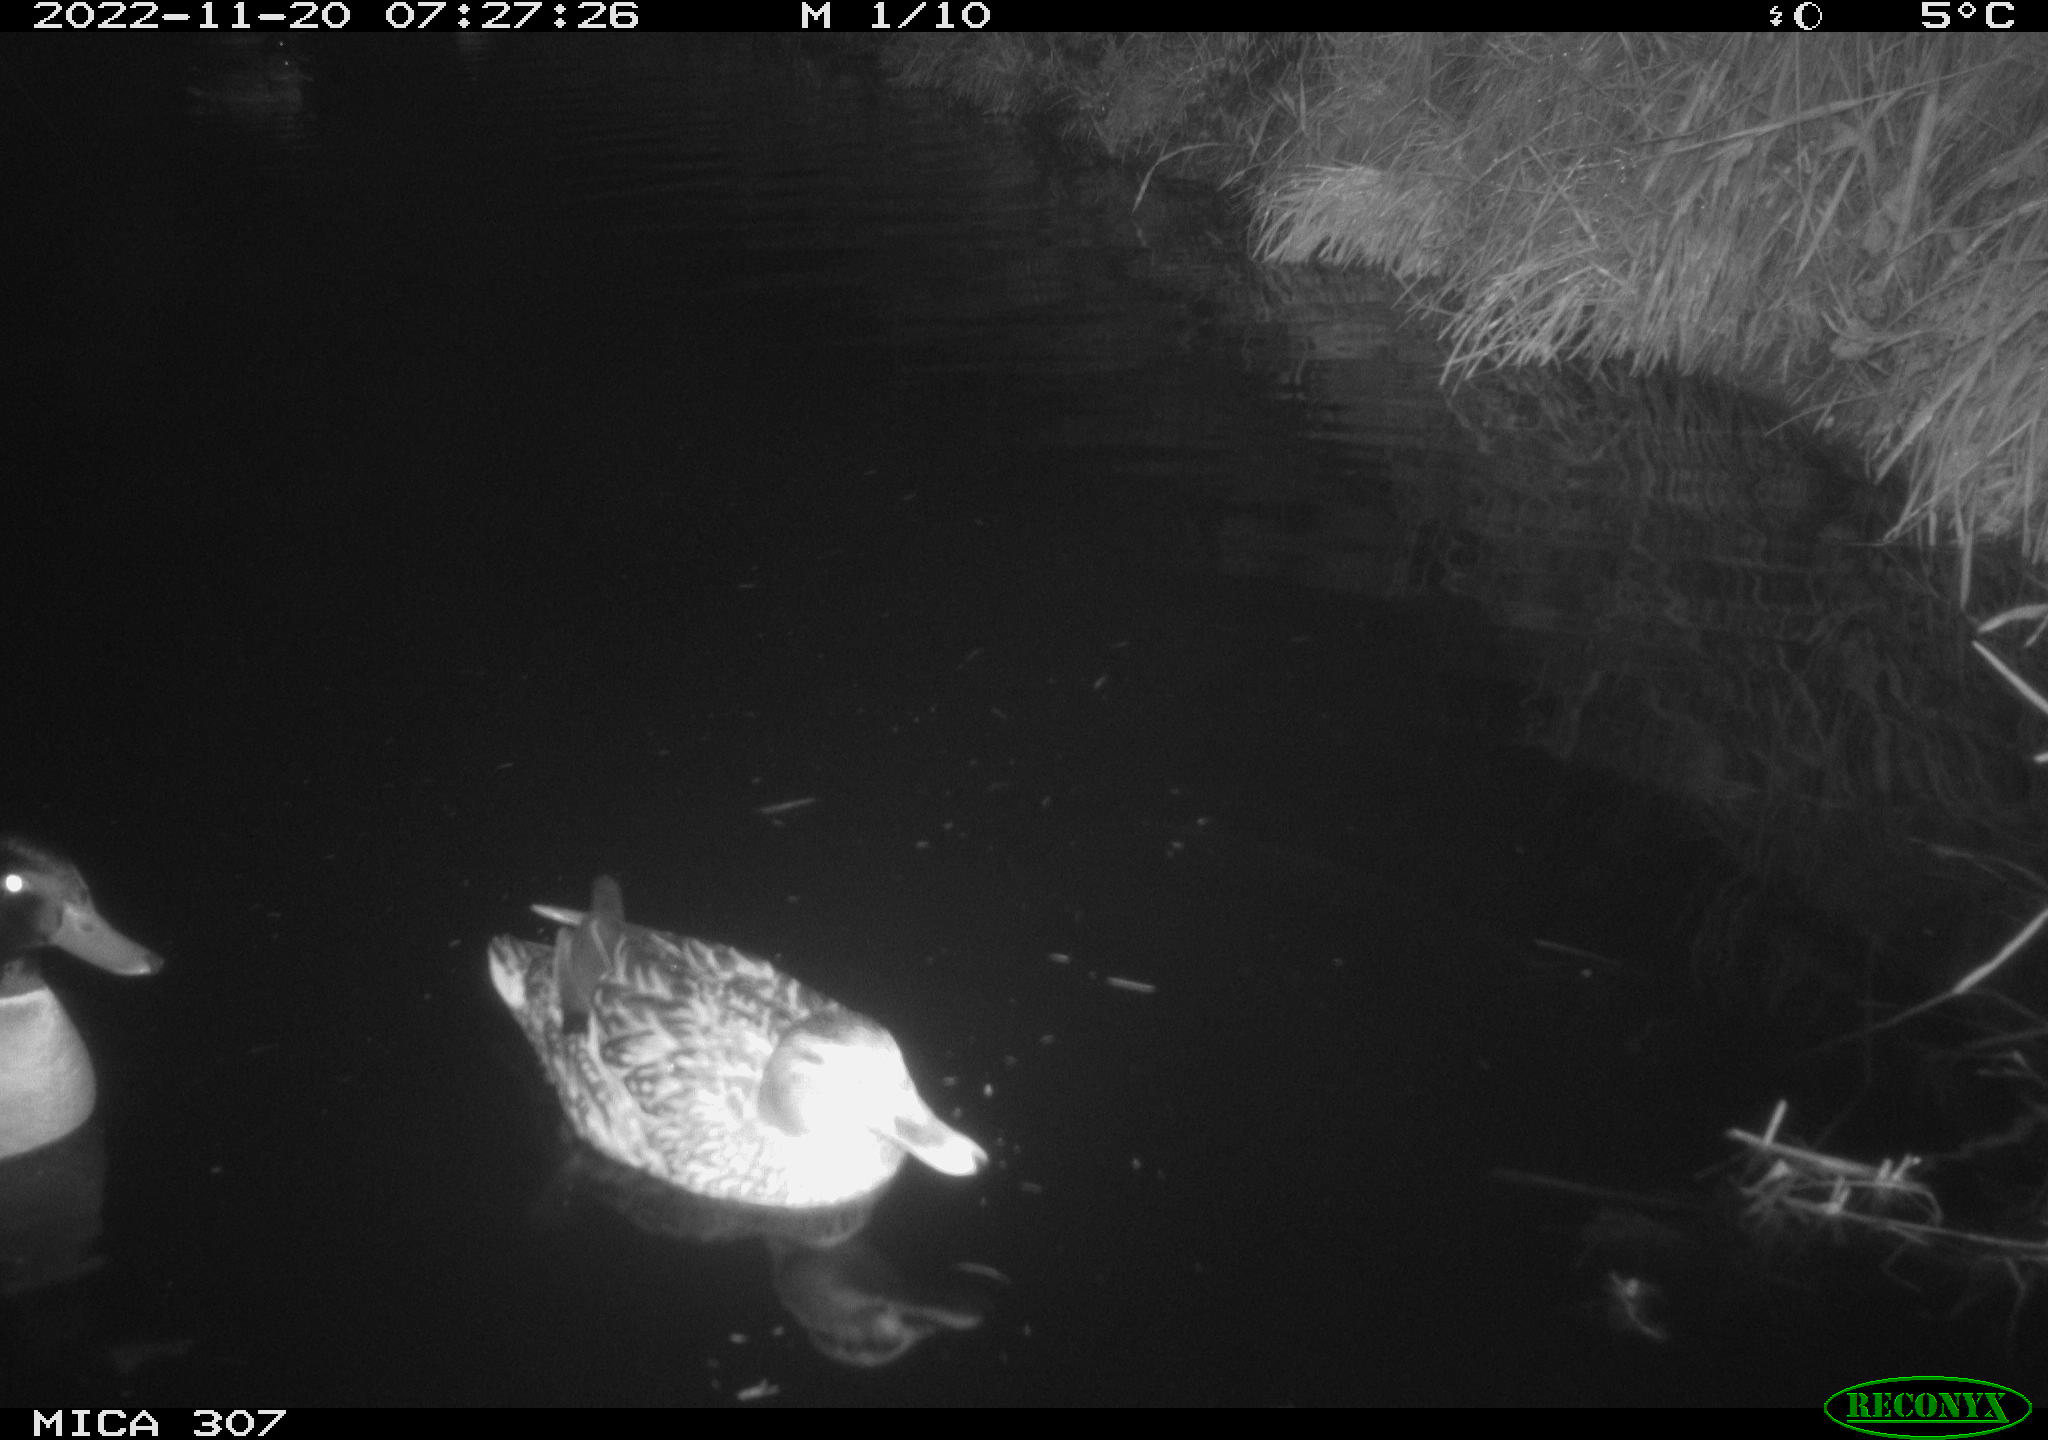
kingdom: Animalia
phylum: Chordata
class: Aves
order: Anseriformes
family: Anatidae
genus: Anas
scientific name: Anas
